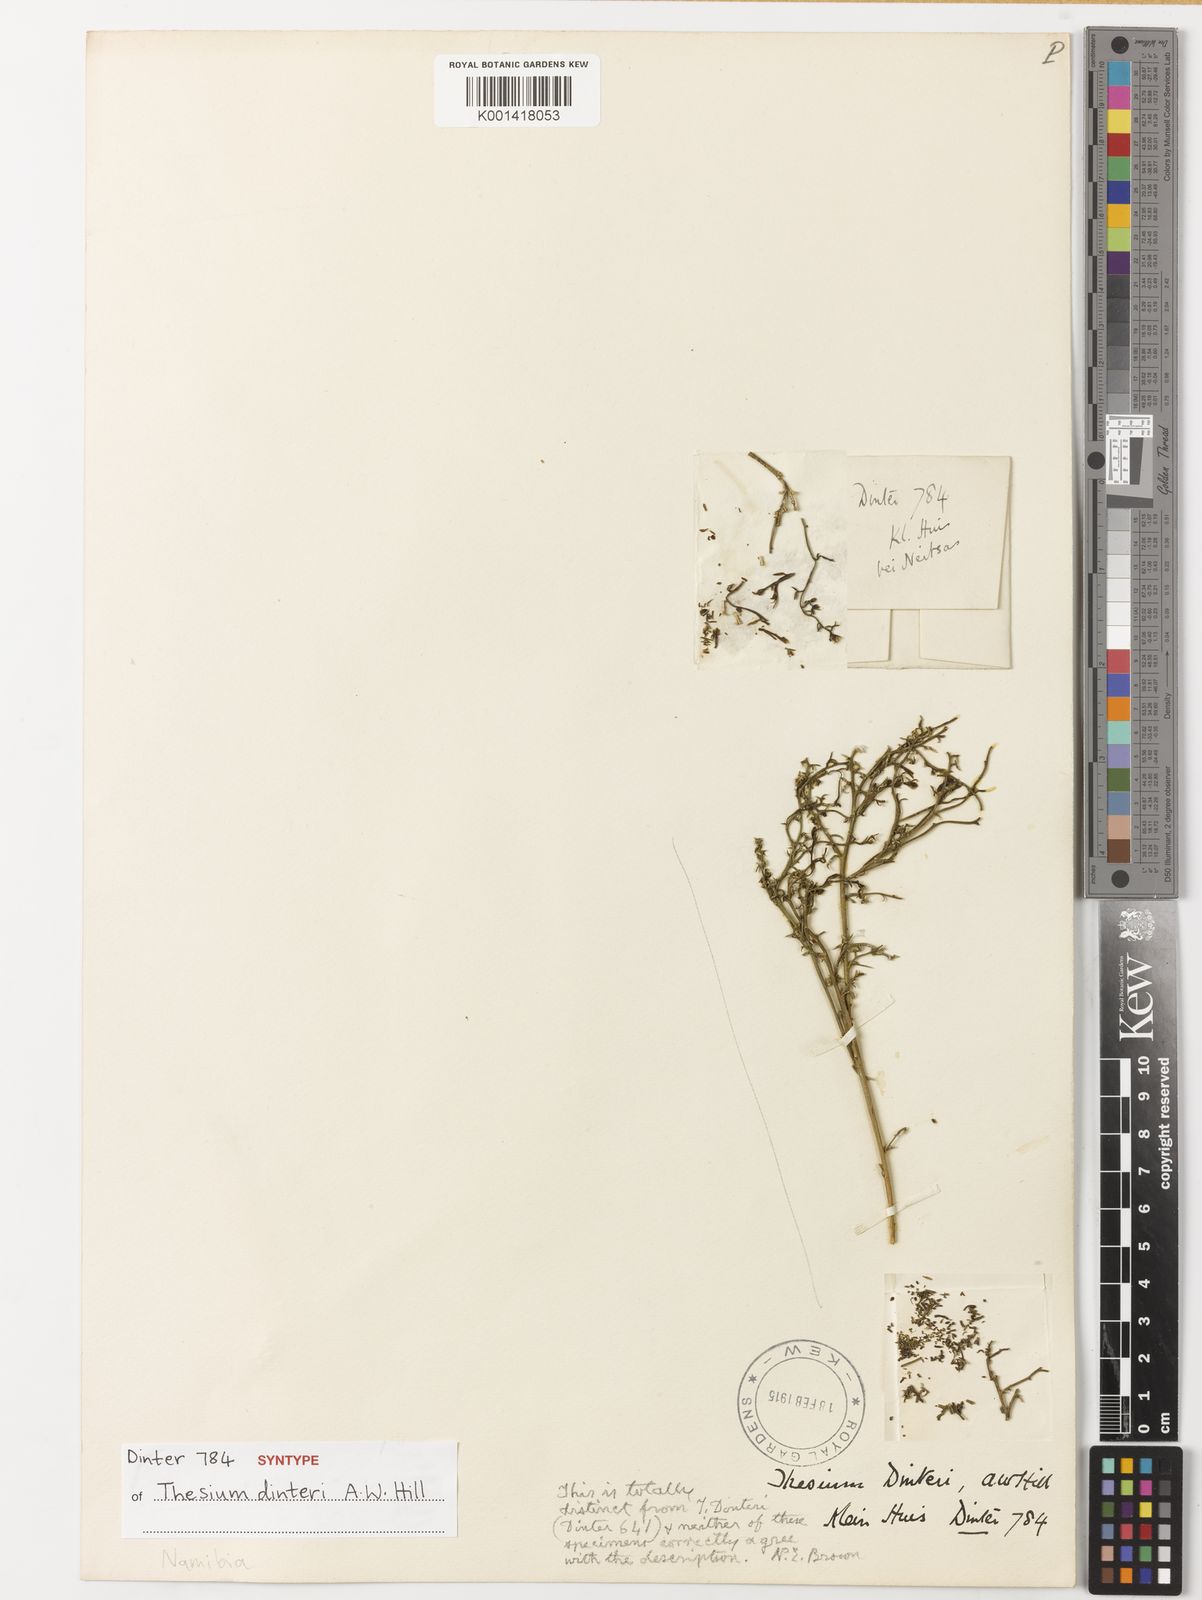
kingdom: Plantae
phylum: Tracheophyta
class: Magnoliopsida
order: Santalales
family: Thesiaceae
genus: Thesium
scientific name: Thesium megalocarpum
